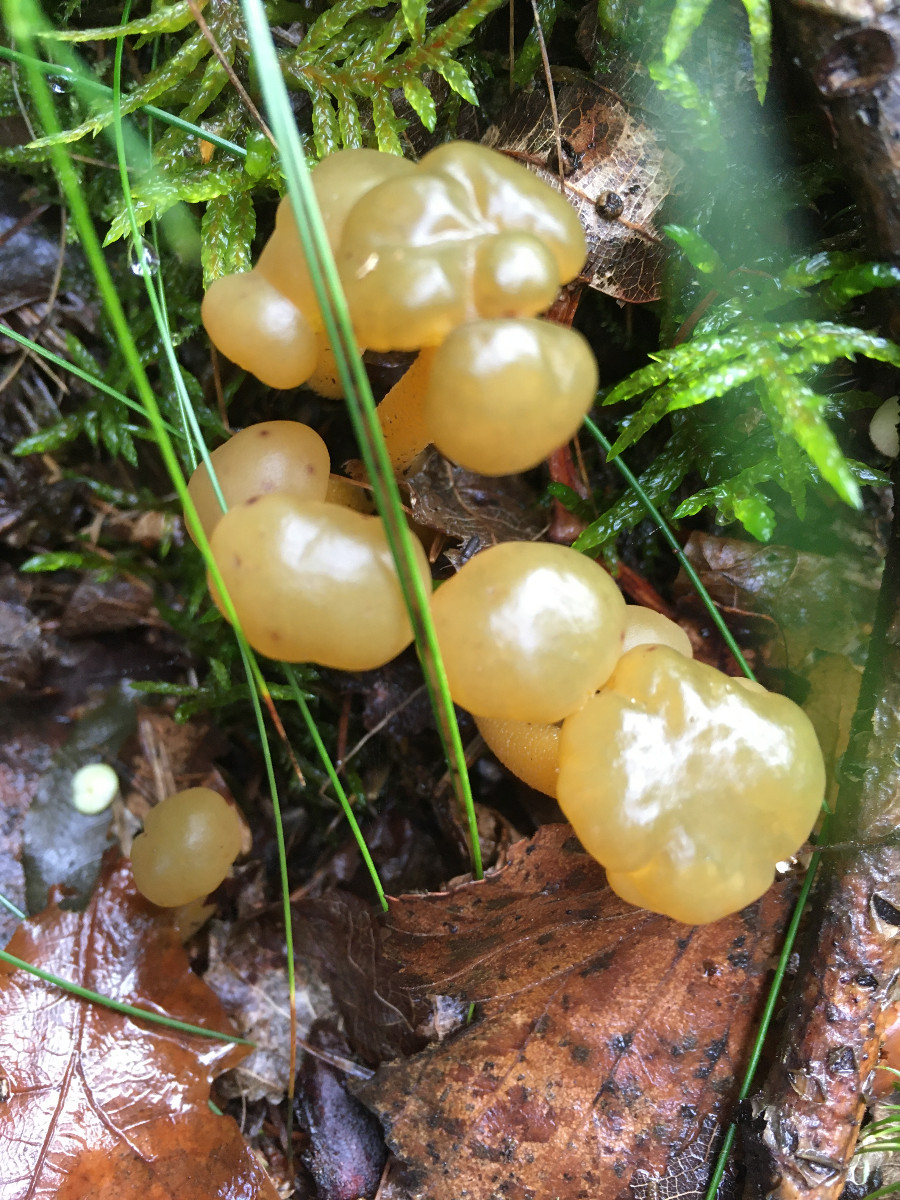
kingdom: Fungi
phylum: Ascomycota
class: Leotiomycetes
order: Leotiales
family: Leotiaceae
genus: Leotia
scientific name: Leotia lubrica
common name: ravsvamp
